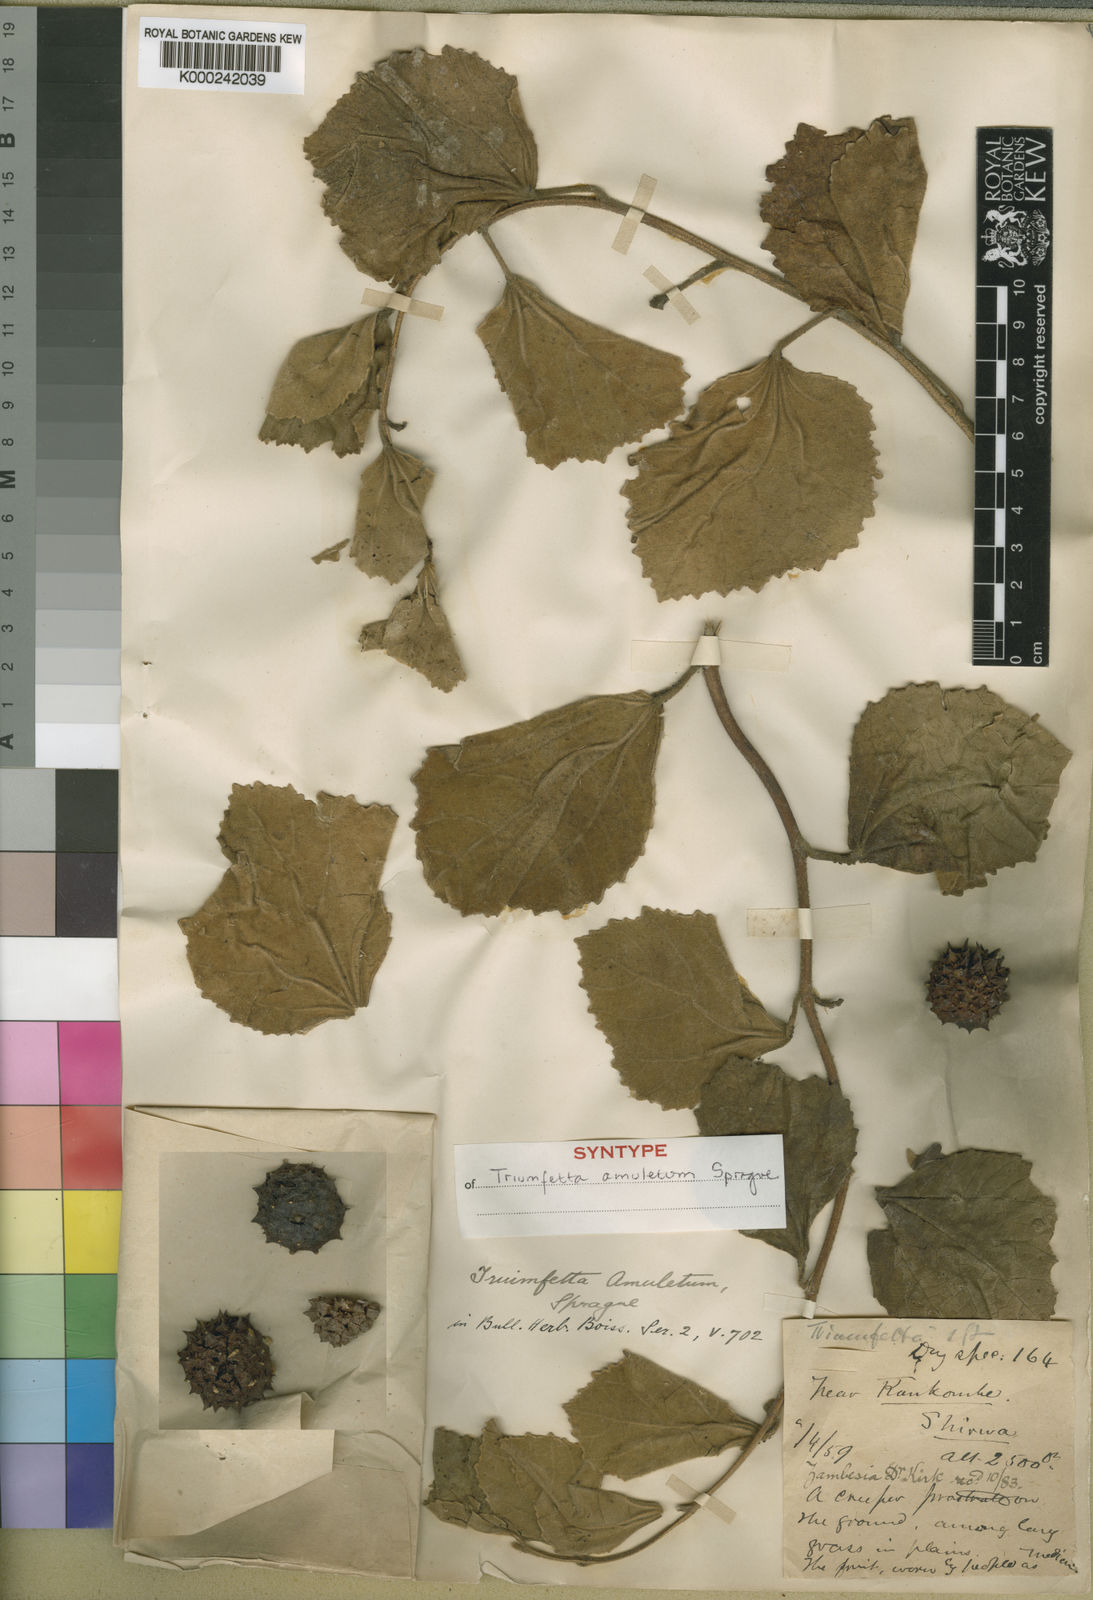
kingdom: Plantae
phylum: Tracheophyta
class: Magnoliopsida
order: Malvales
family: Malvaceae
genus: Triumfetta
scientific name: Triumfetta amuletum
